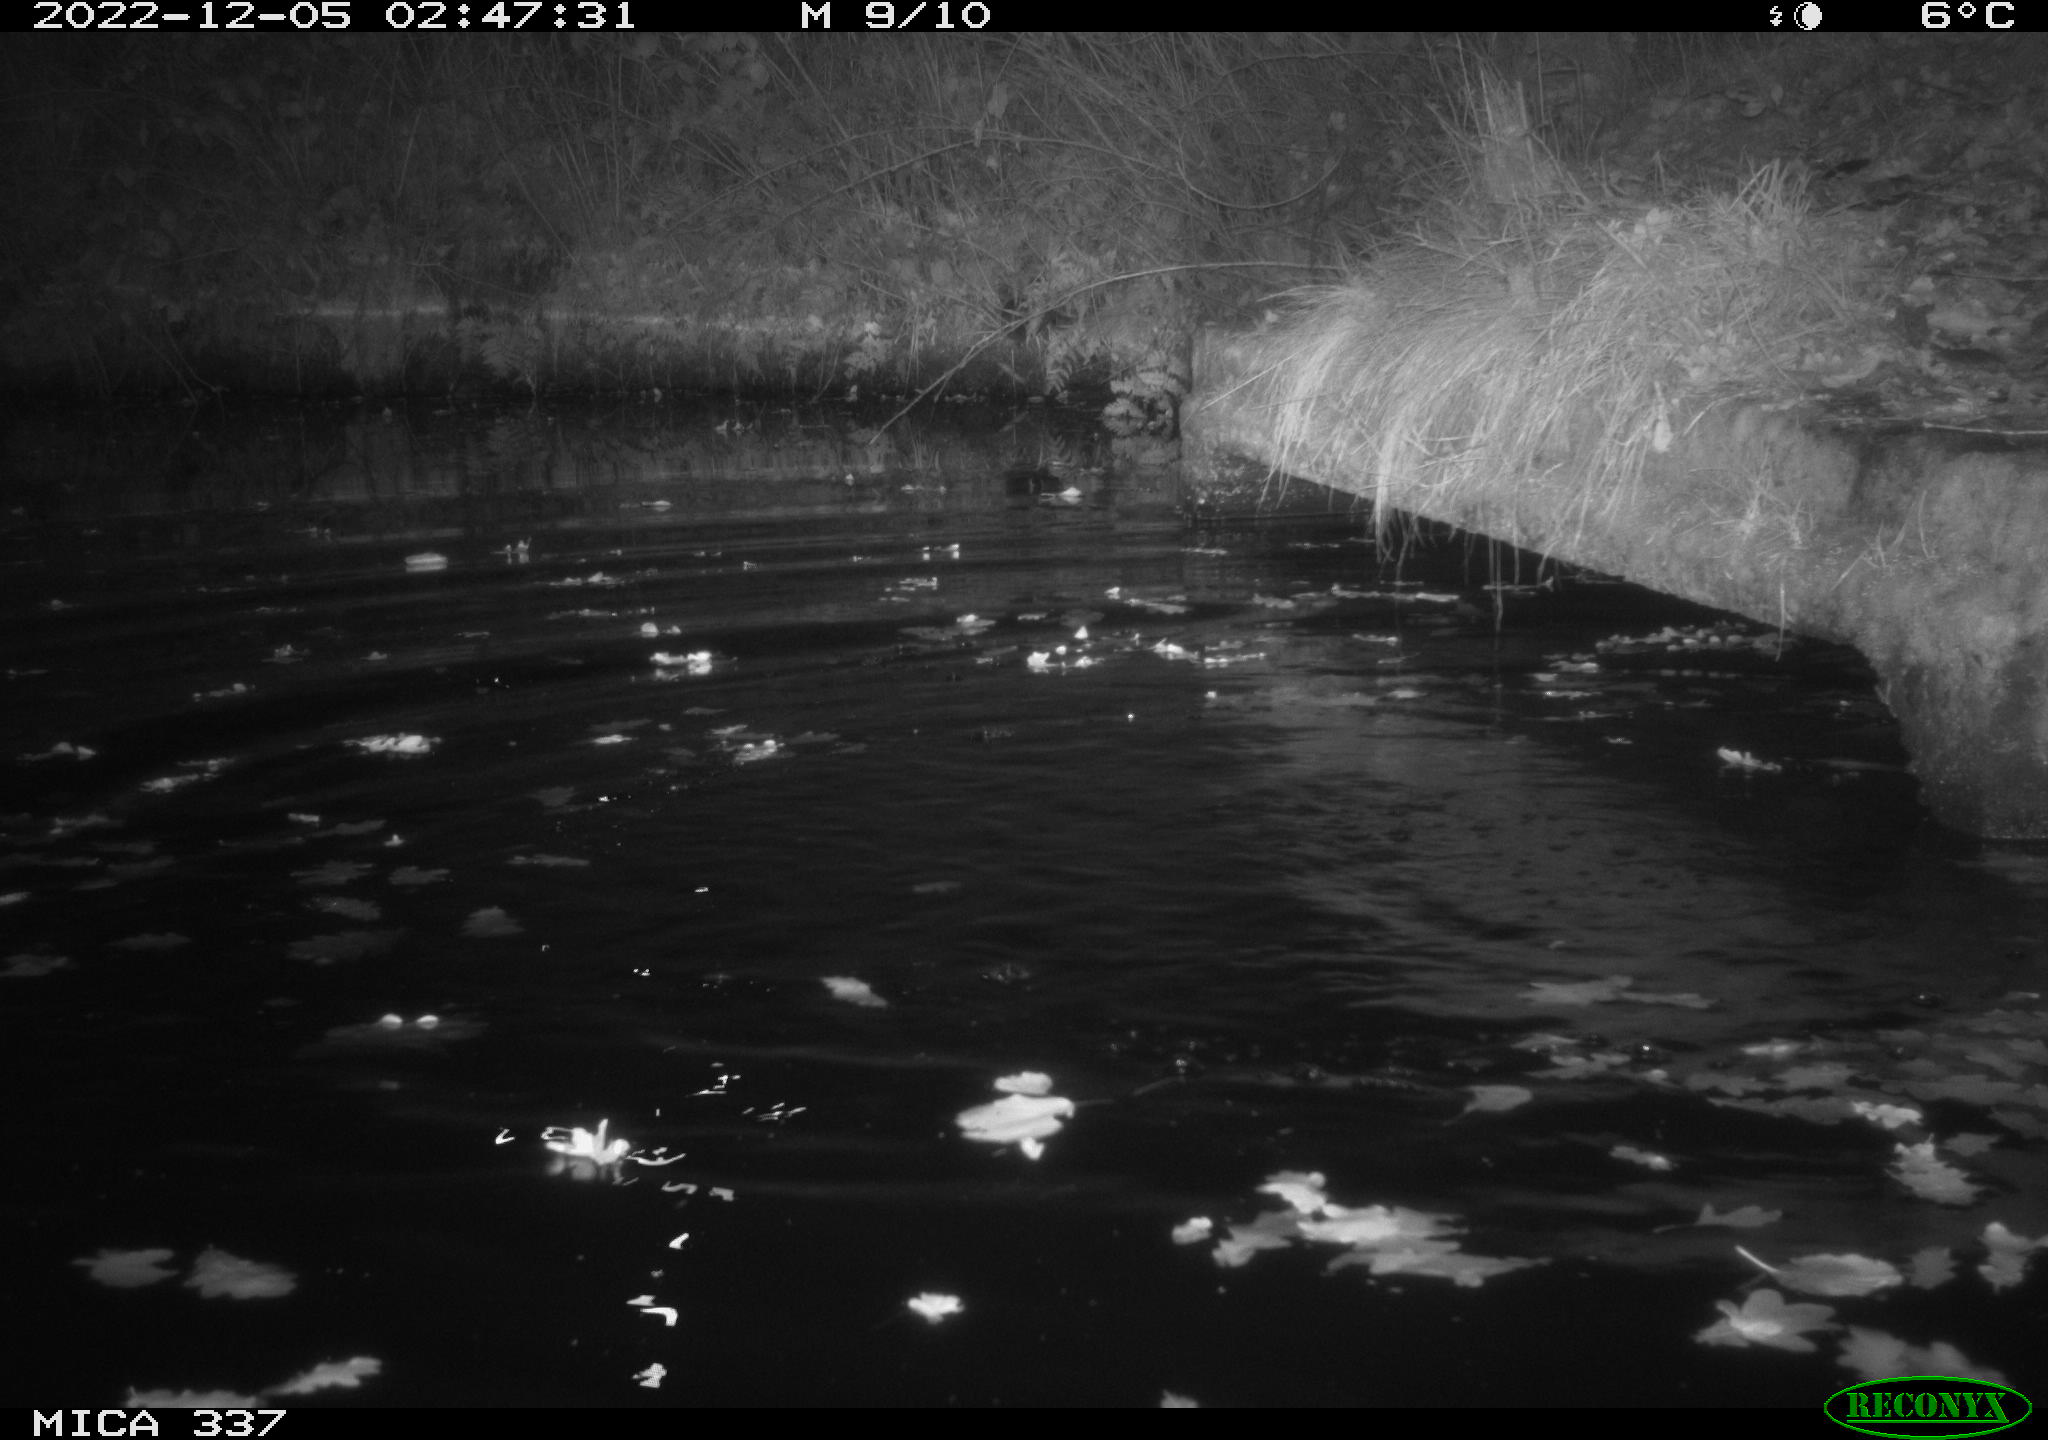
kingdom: Animalia
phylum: Chordata
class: Aves
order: Anseriformes
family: Anatidae
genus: Anas
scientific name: Anas
